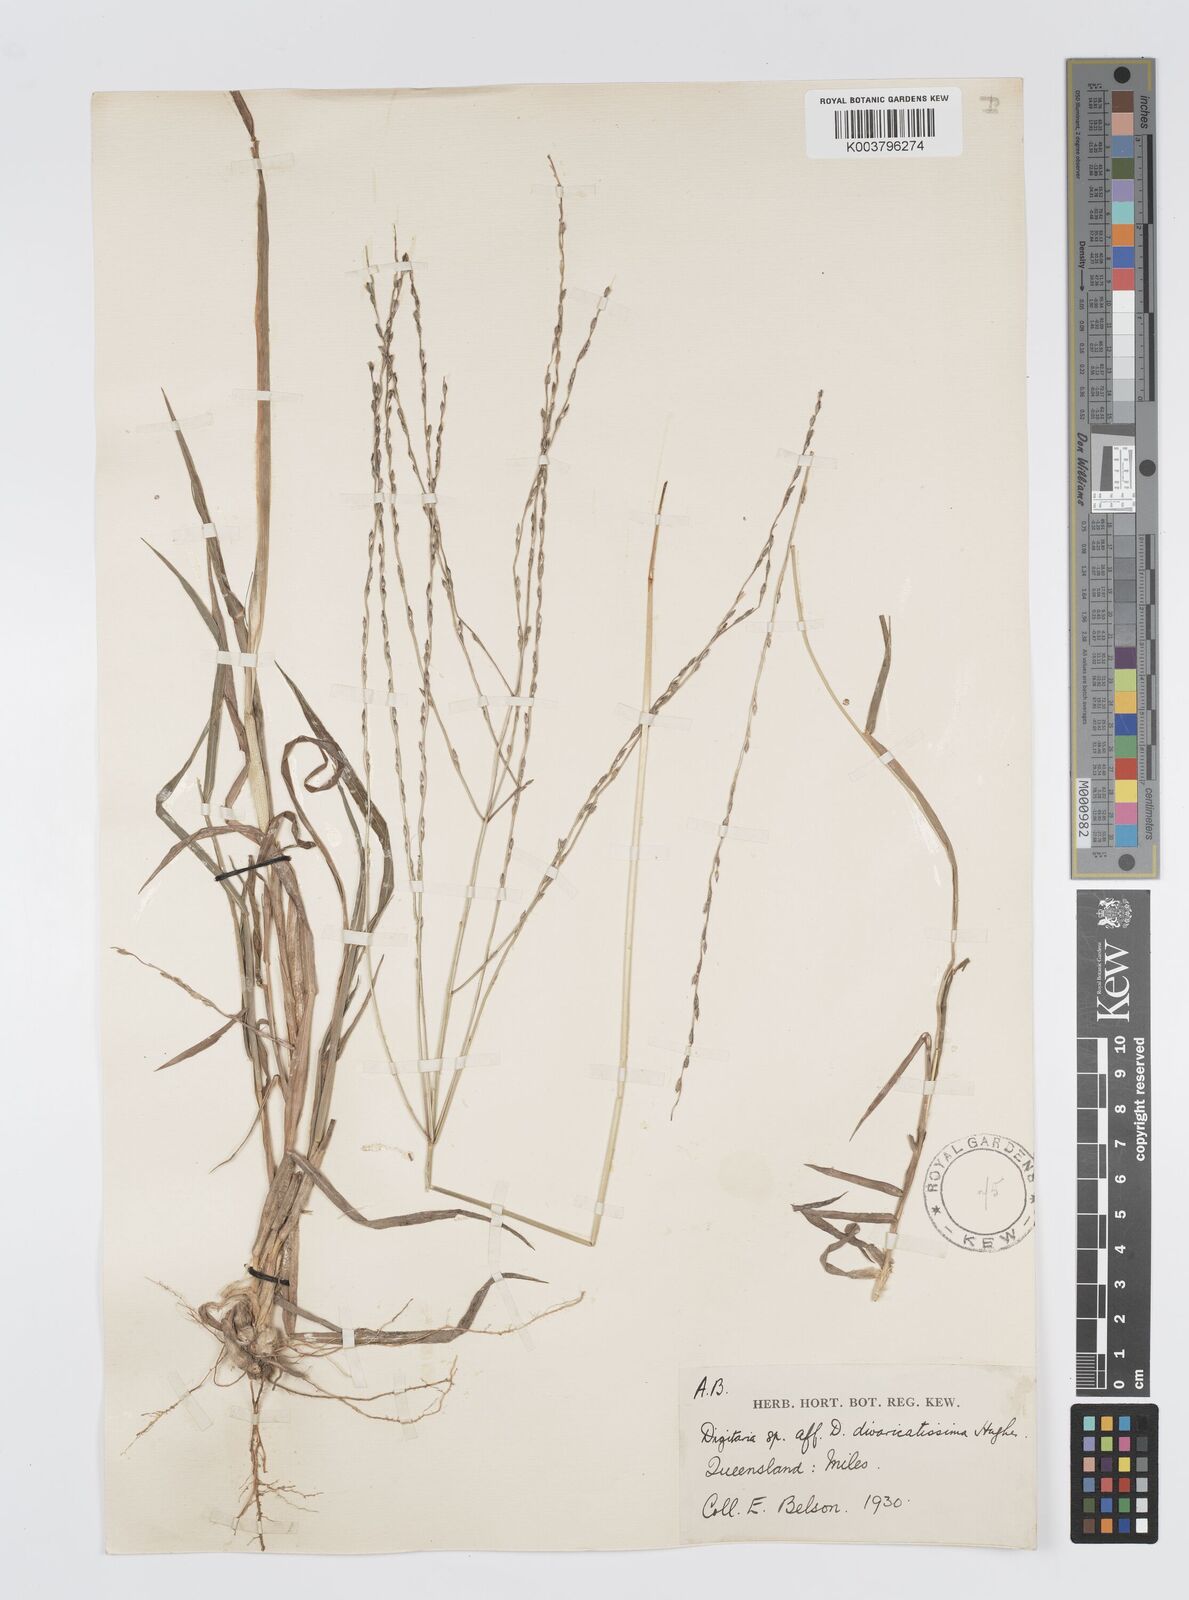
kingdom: Plantae
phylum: Tracheophyta
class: Liliopsida
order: Poales
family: Poaceae
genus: Digitaria
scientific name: Digitaria divaricatissima
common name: Crabgrass
